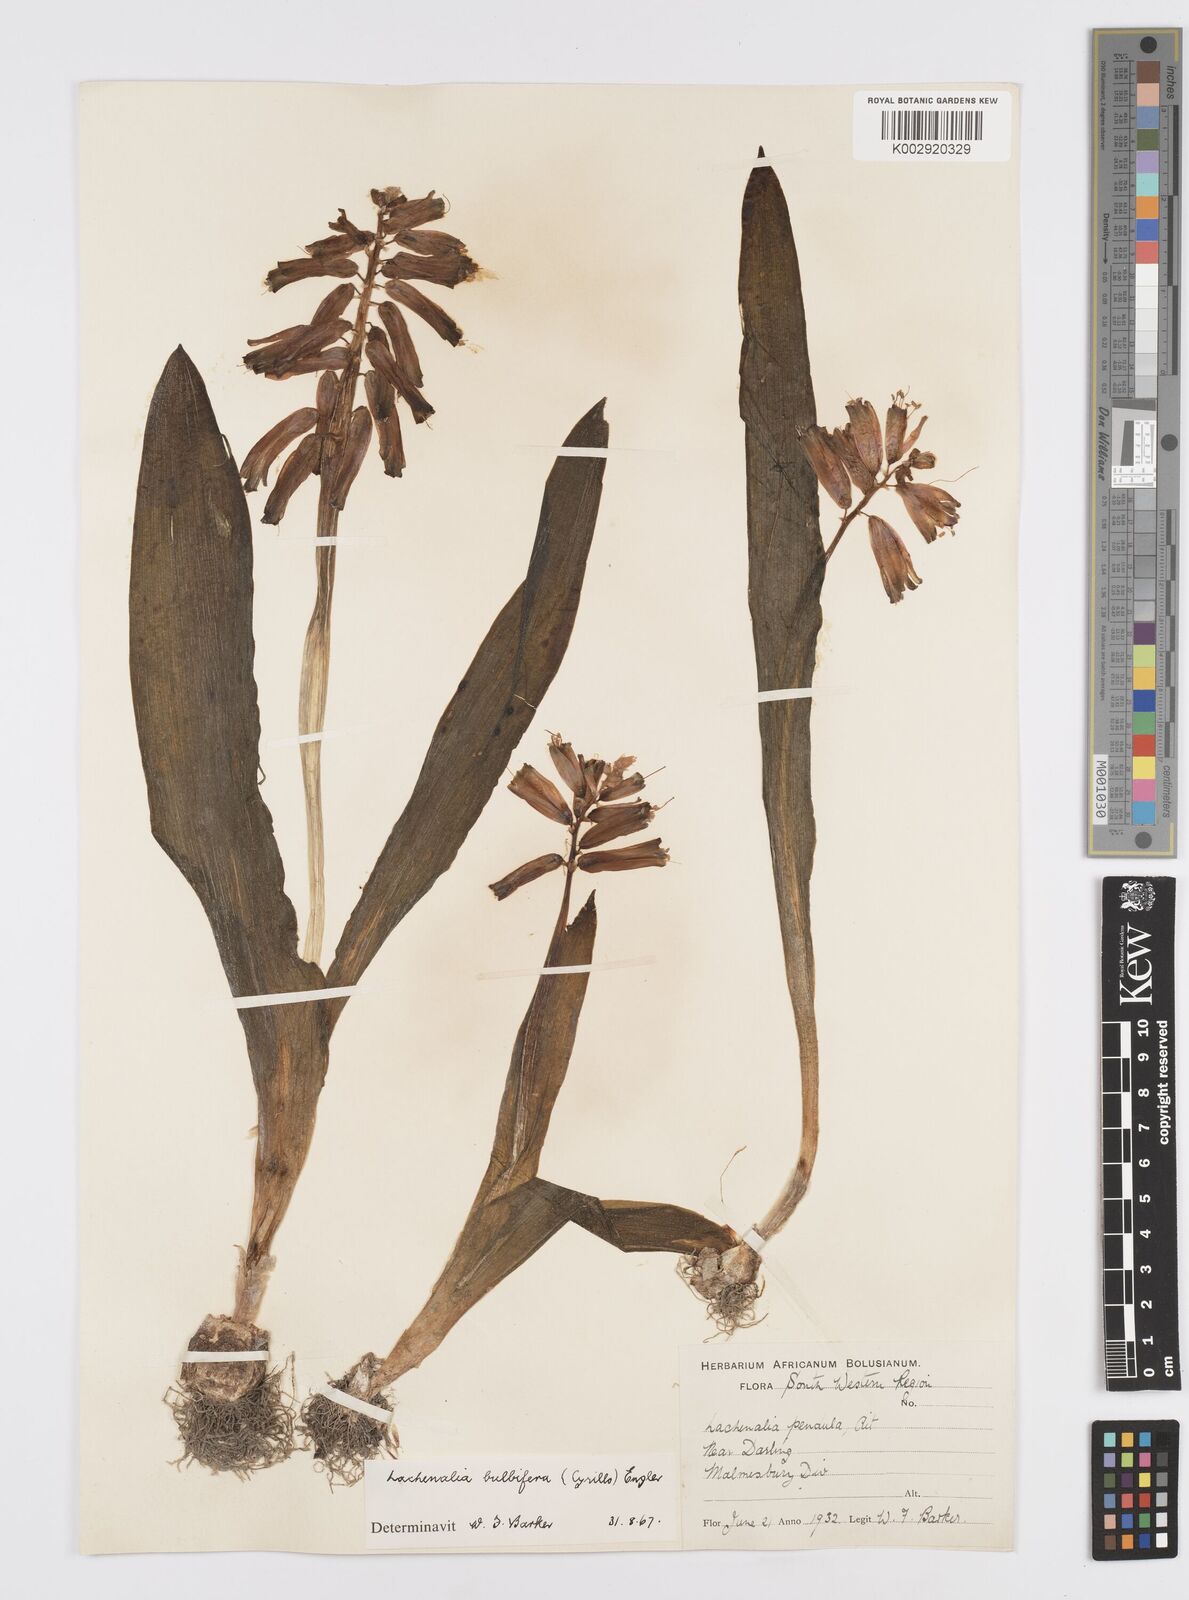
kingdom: Plantae
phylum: Tracheophyta
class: Liliopsida
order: Asparagales
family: Asparagaceae
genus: Lachenalia
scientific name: Lachenalia bulbifera
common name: Red lachenalia
